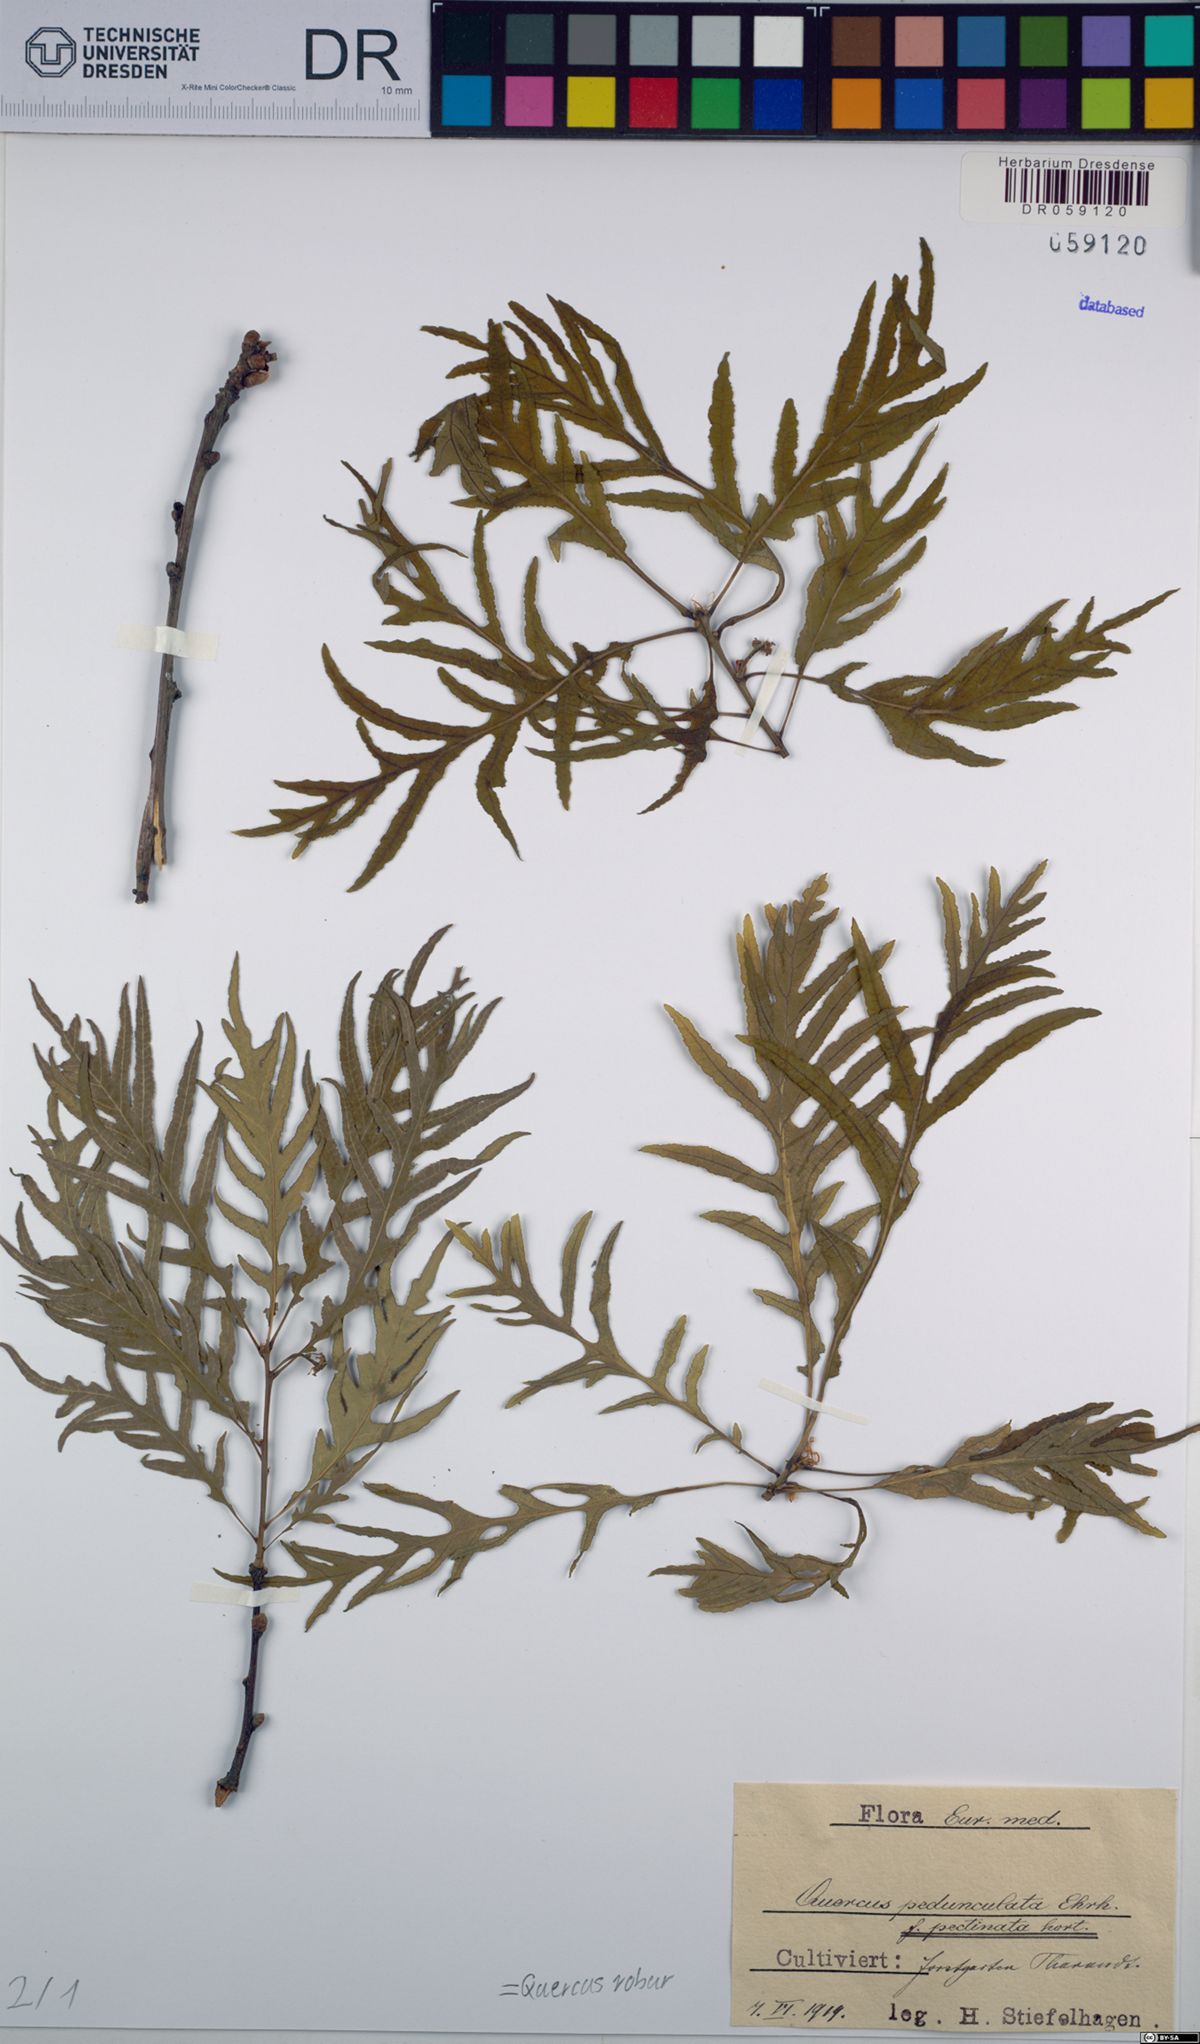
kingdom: Plantae
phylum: Tracheophyta
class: Magnoliopsida
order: Fagales
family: Fagaceae
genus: Quercus
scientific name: Quercus robur
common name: Pedunculate oak
